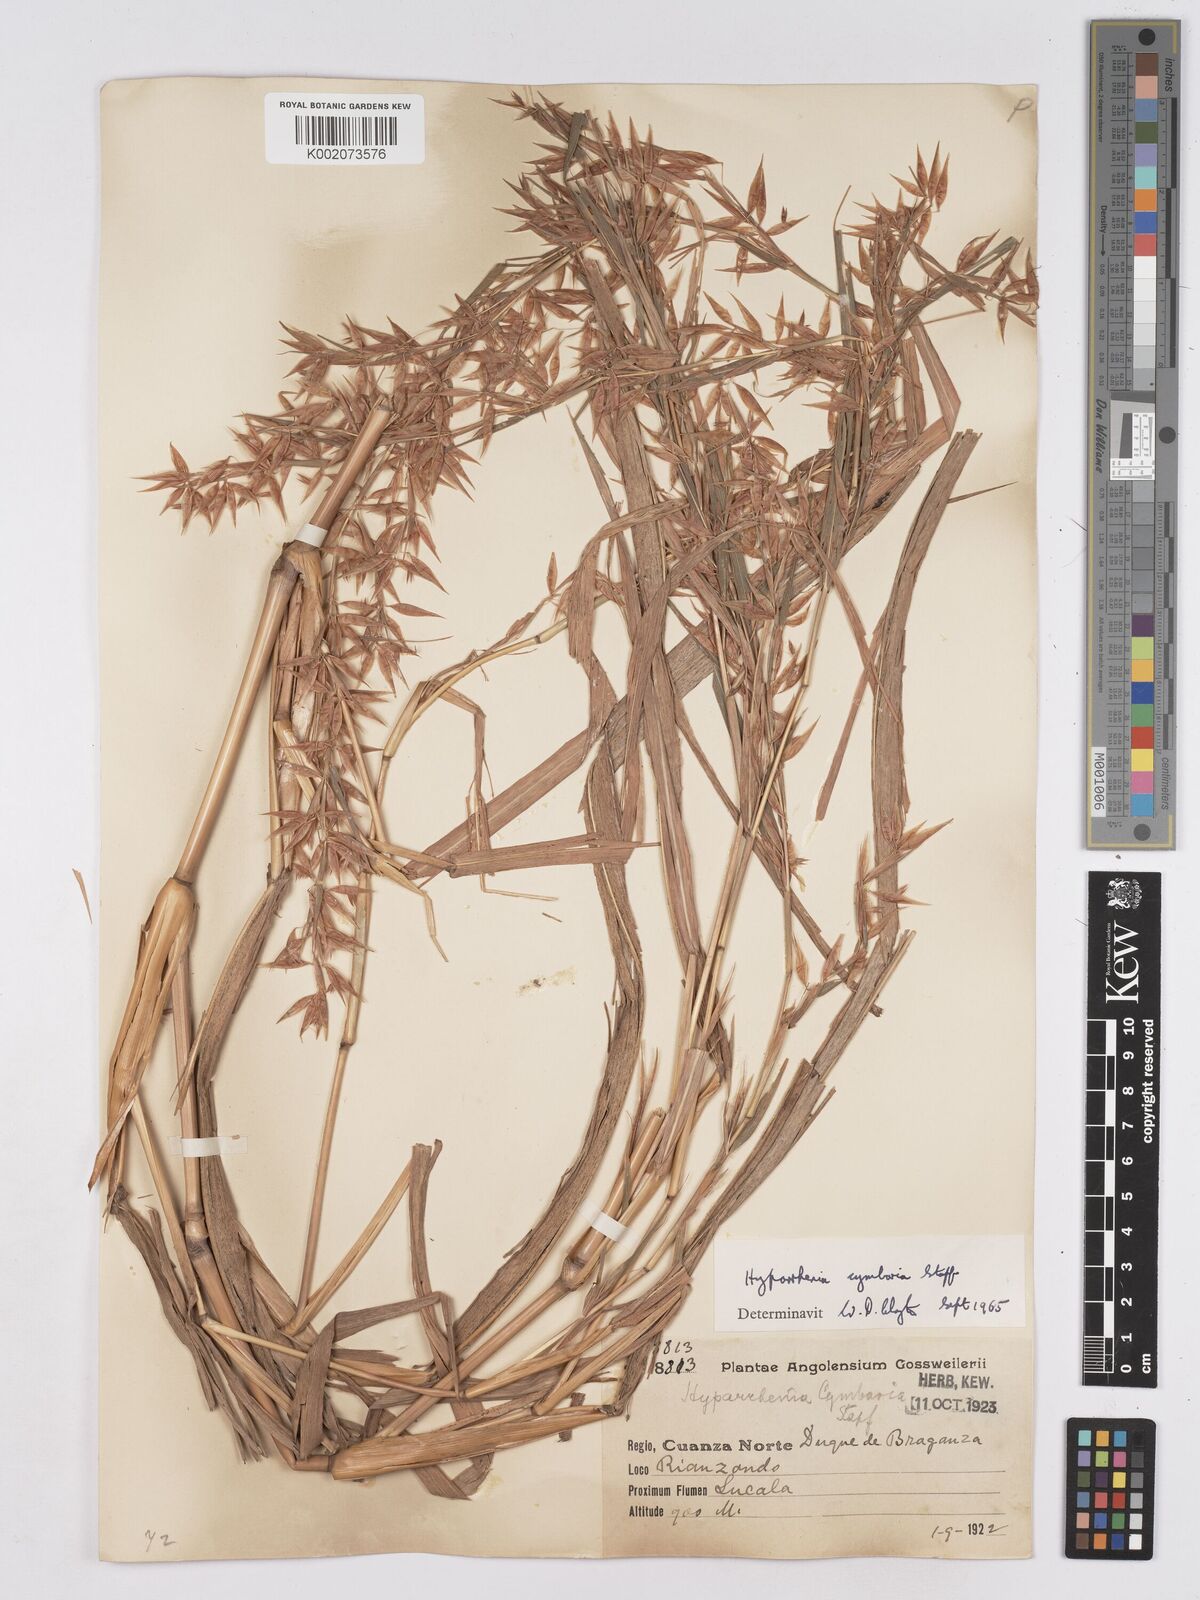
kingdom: Plantae
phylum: Tracheophyta
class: Liliopsida
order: Poales
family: Poaceae
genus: Hyparrhenia
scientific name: Hyparrhenia cymbaria
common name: Boat thatching grass
